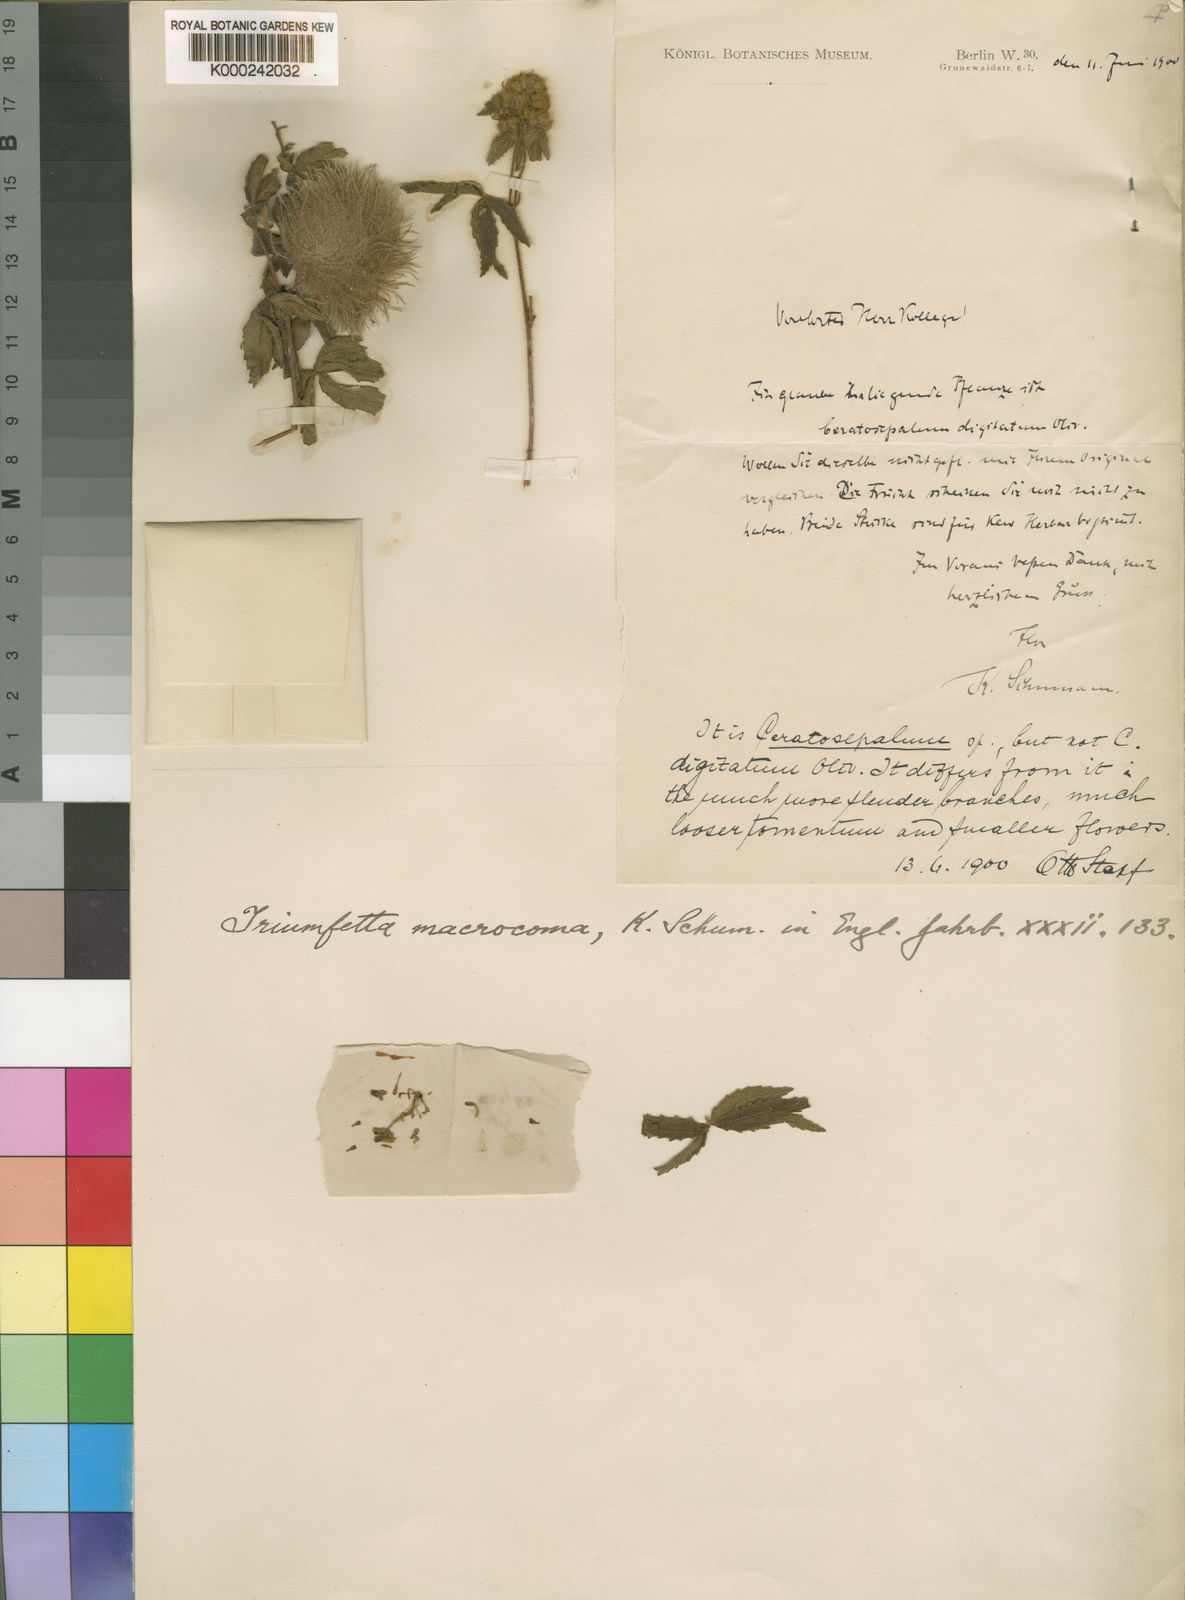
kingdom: Plantae
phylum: Tracheophyta
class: Magnoliopsida
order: Malvales
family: Malvaceae
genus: Triumfetta
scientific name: Triumfetta macrocoma
